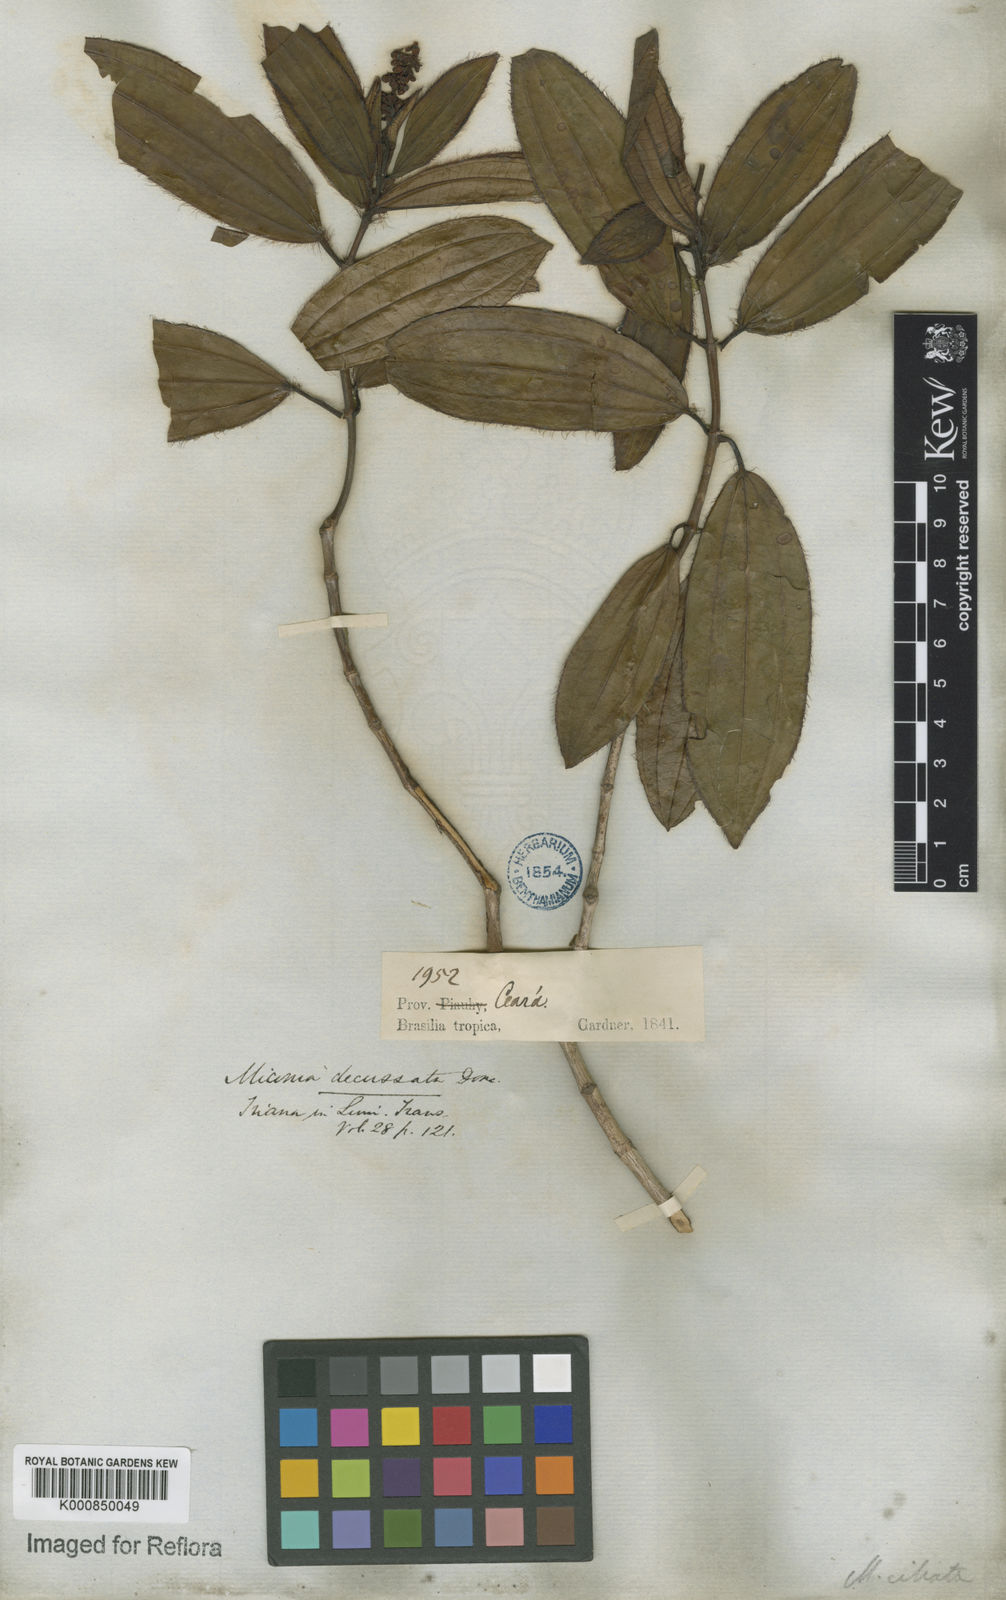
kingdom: Plantae
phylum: Tracheophyta
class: Magnoliopsida
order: Myrtales
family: Melastomataceae
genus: Miconia
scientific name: Miconia ciliata
